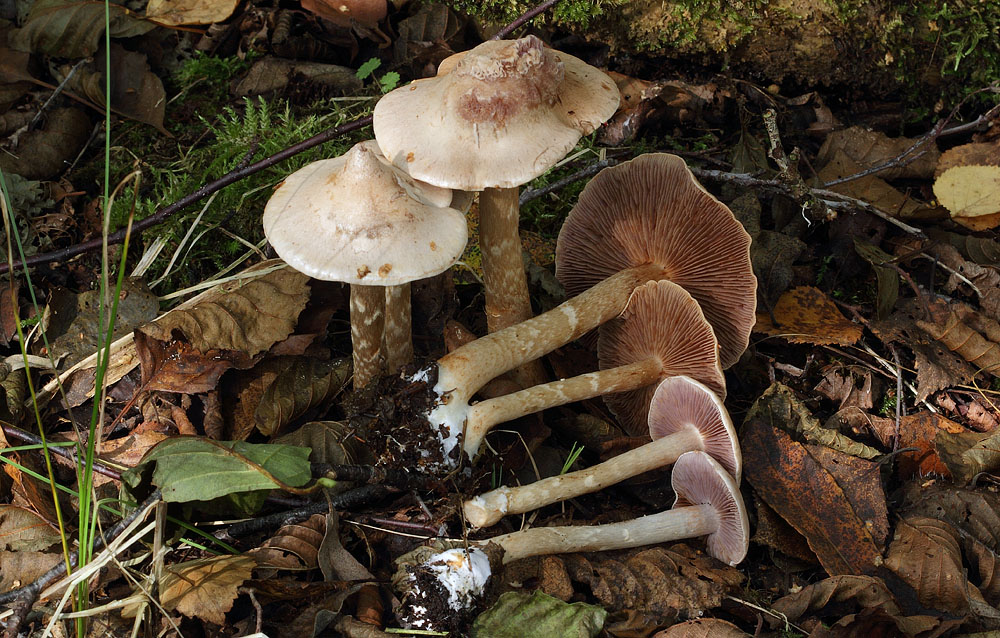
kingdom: Fungi
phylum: Basidiomycota
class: Agaricomycetes
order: Agaricales
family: Cortinariaceae
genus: Cortinarius
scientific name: Cortinarius albocyaneus
